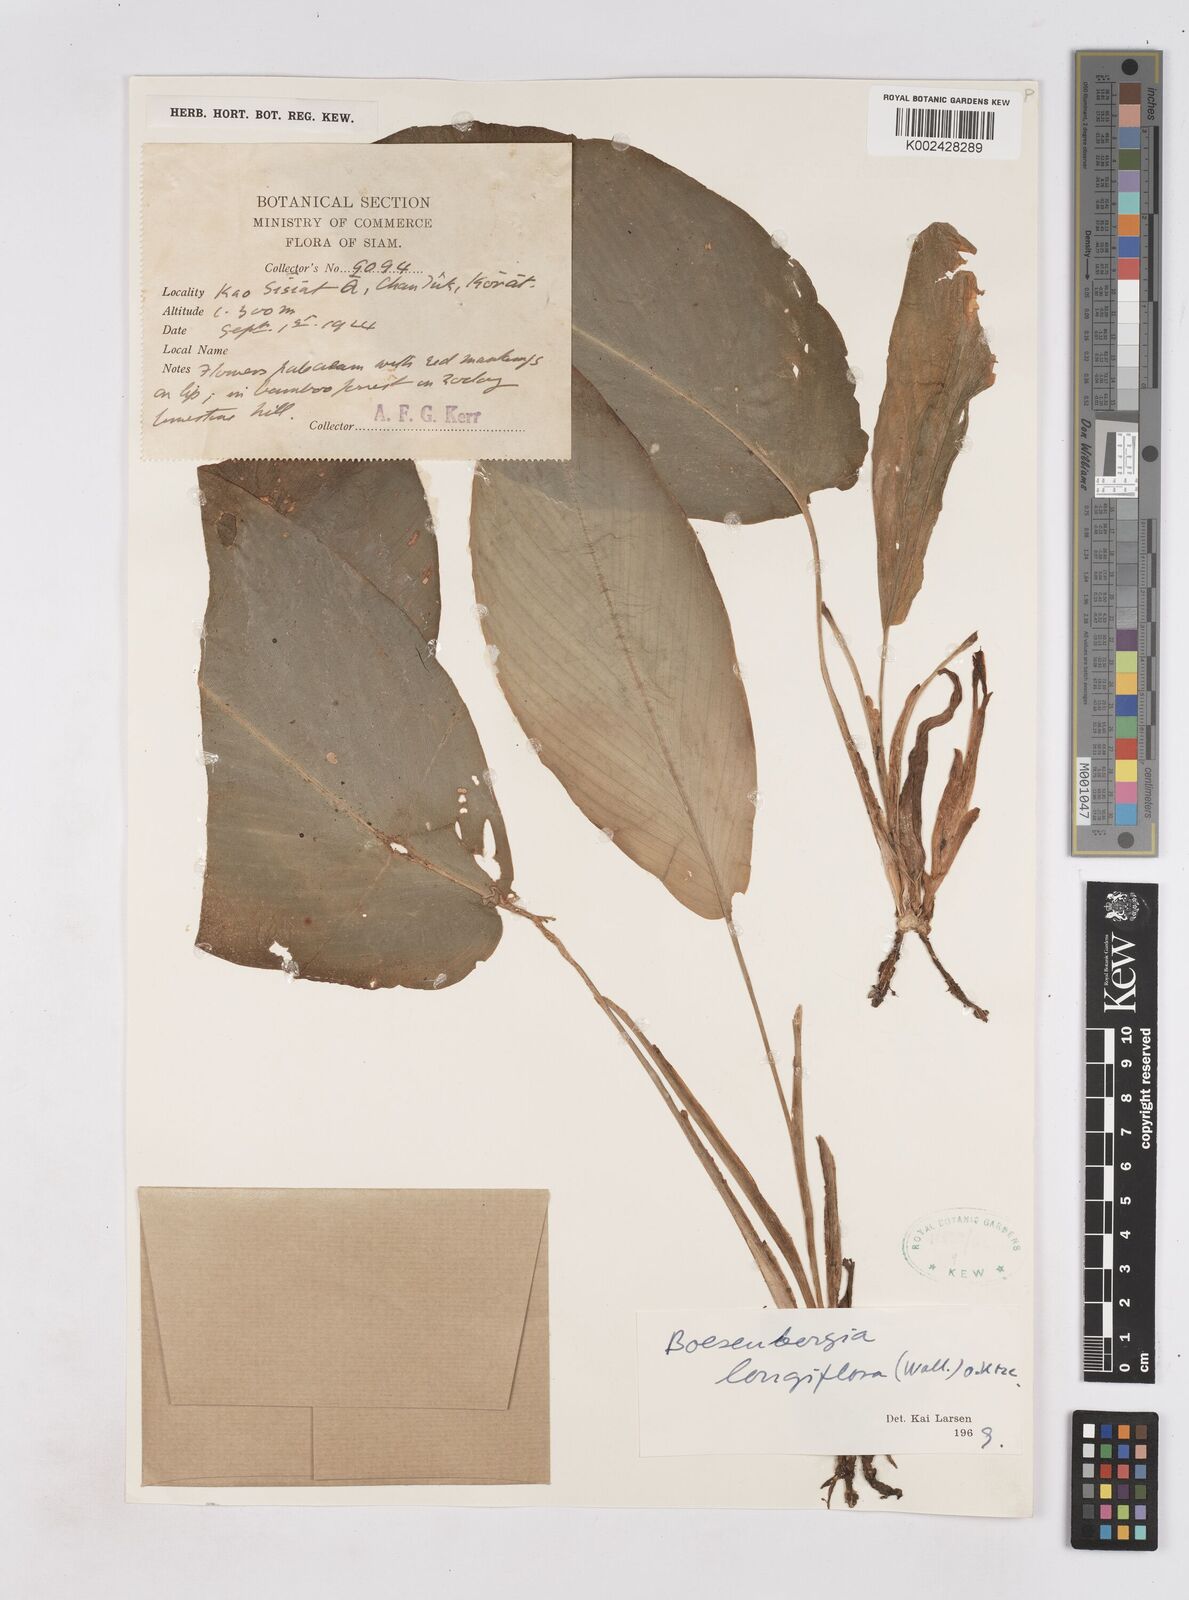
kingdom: Plantae
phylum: Tracheophyta
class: Liliopsida
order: Zingiberales
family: Zingiberaceae
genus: Boesenbergia
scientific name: Boesenbergia longiflora
